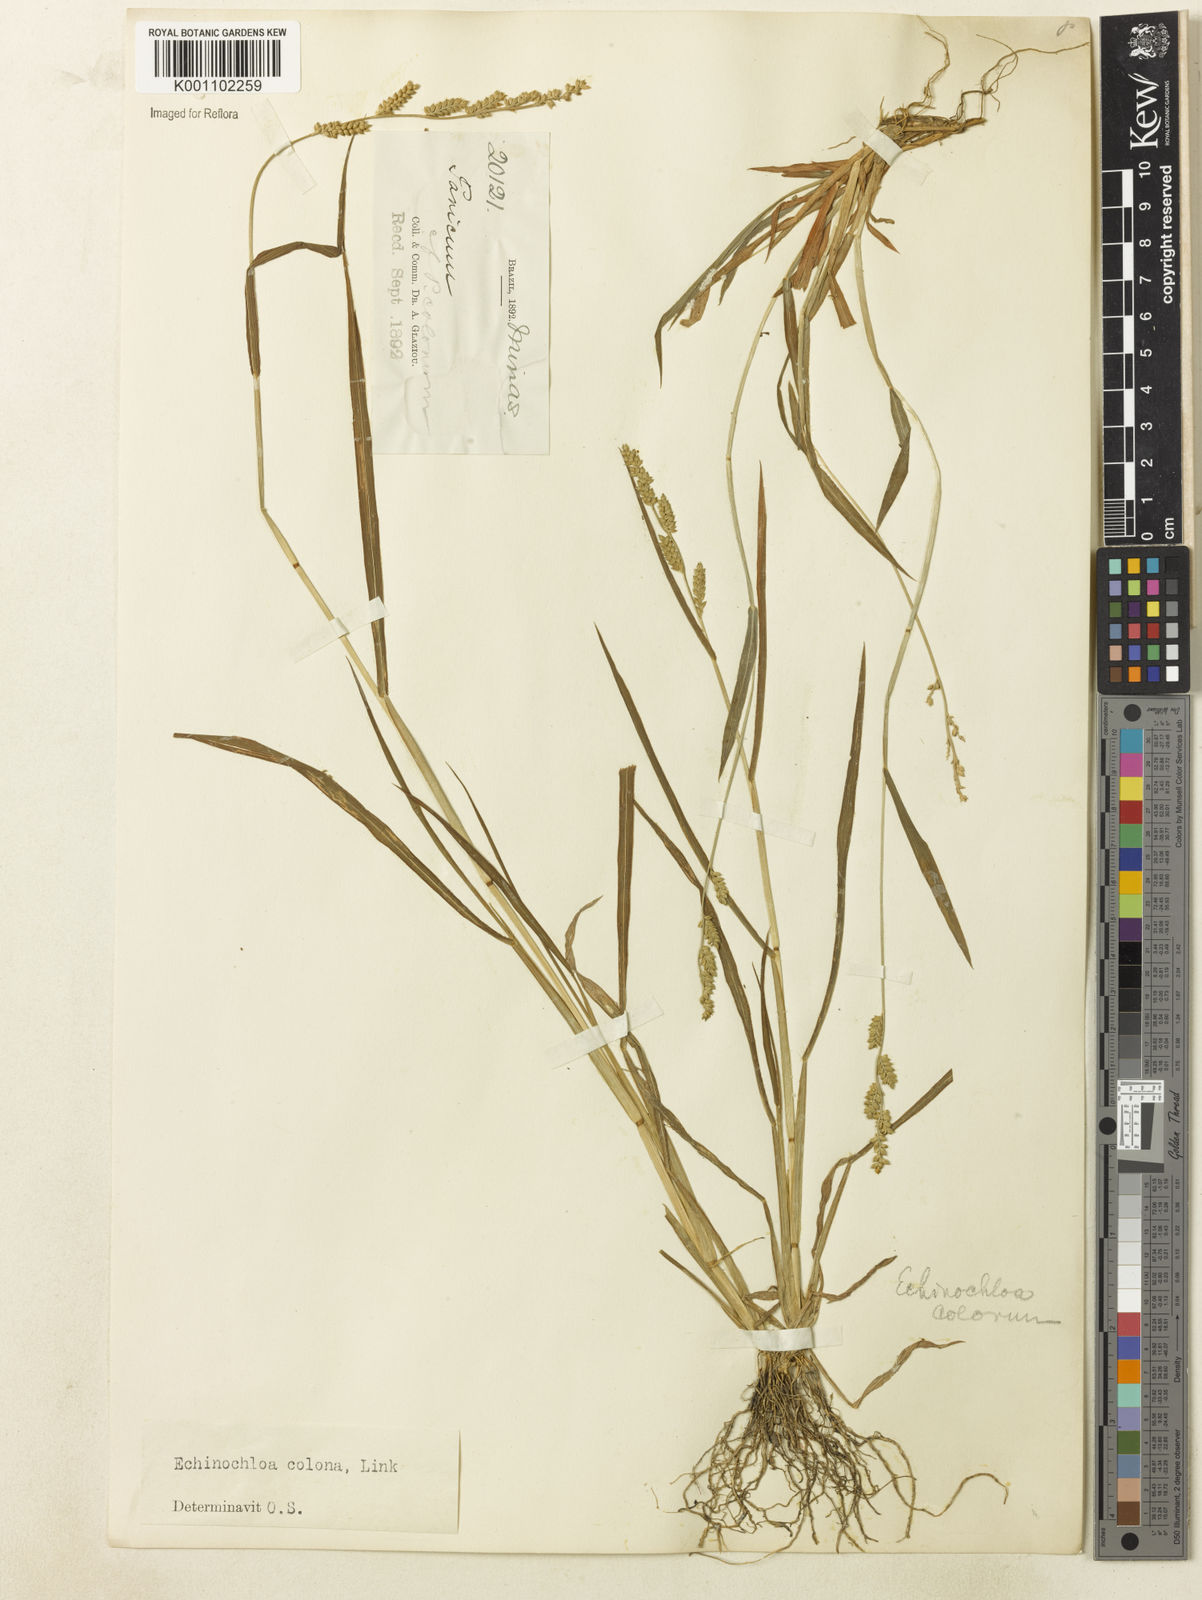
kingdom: Plantae
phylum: Tracheophyta
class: Liliopsida
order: Poales
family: Poaceae
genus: Echinochloa
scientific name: Echinochloa colonum
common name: Jungle rice
